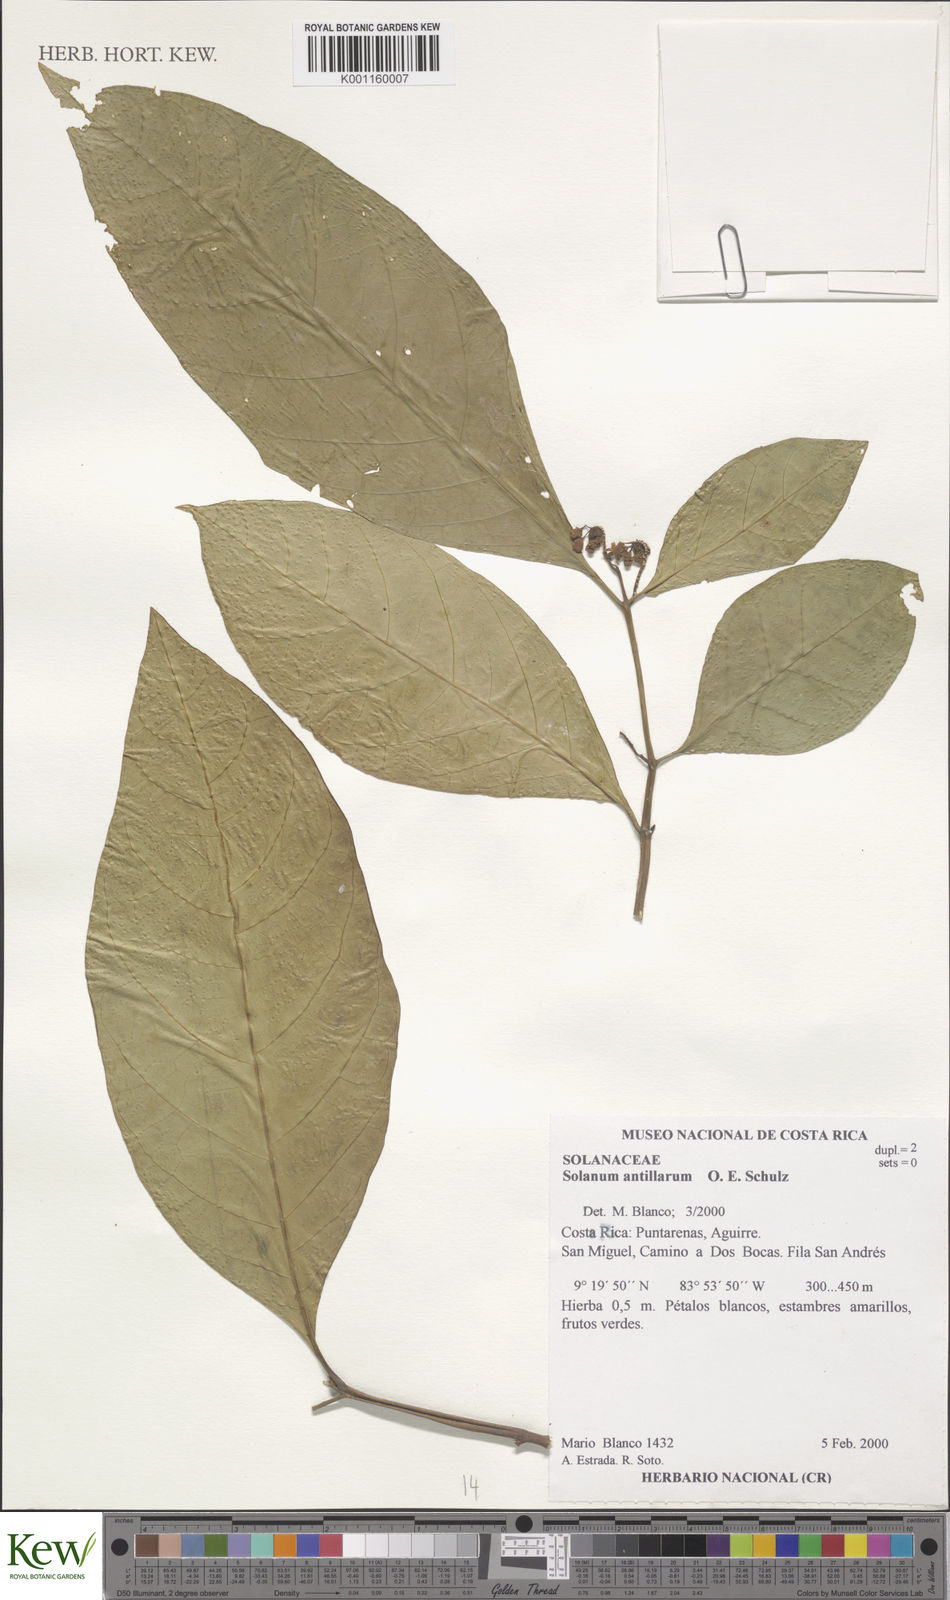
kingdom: Plantae
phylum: Tracheophyta
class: Magnoliopsida
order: Solanales
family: Solanaceae
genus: Solanum
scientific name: Solanum nudum
